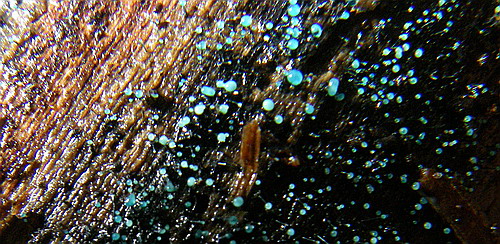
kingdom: Fungi
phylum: Ascomycota
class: Leotiomycetes
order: Leotiales
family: Tympanidaceae
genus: Dendrostilbella
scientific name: Dendrostilbella smaragdina
